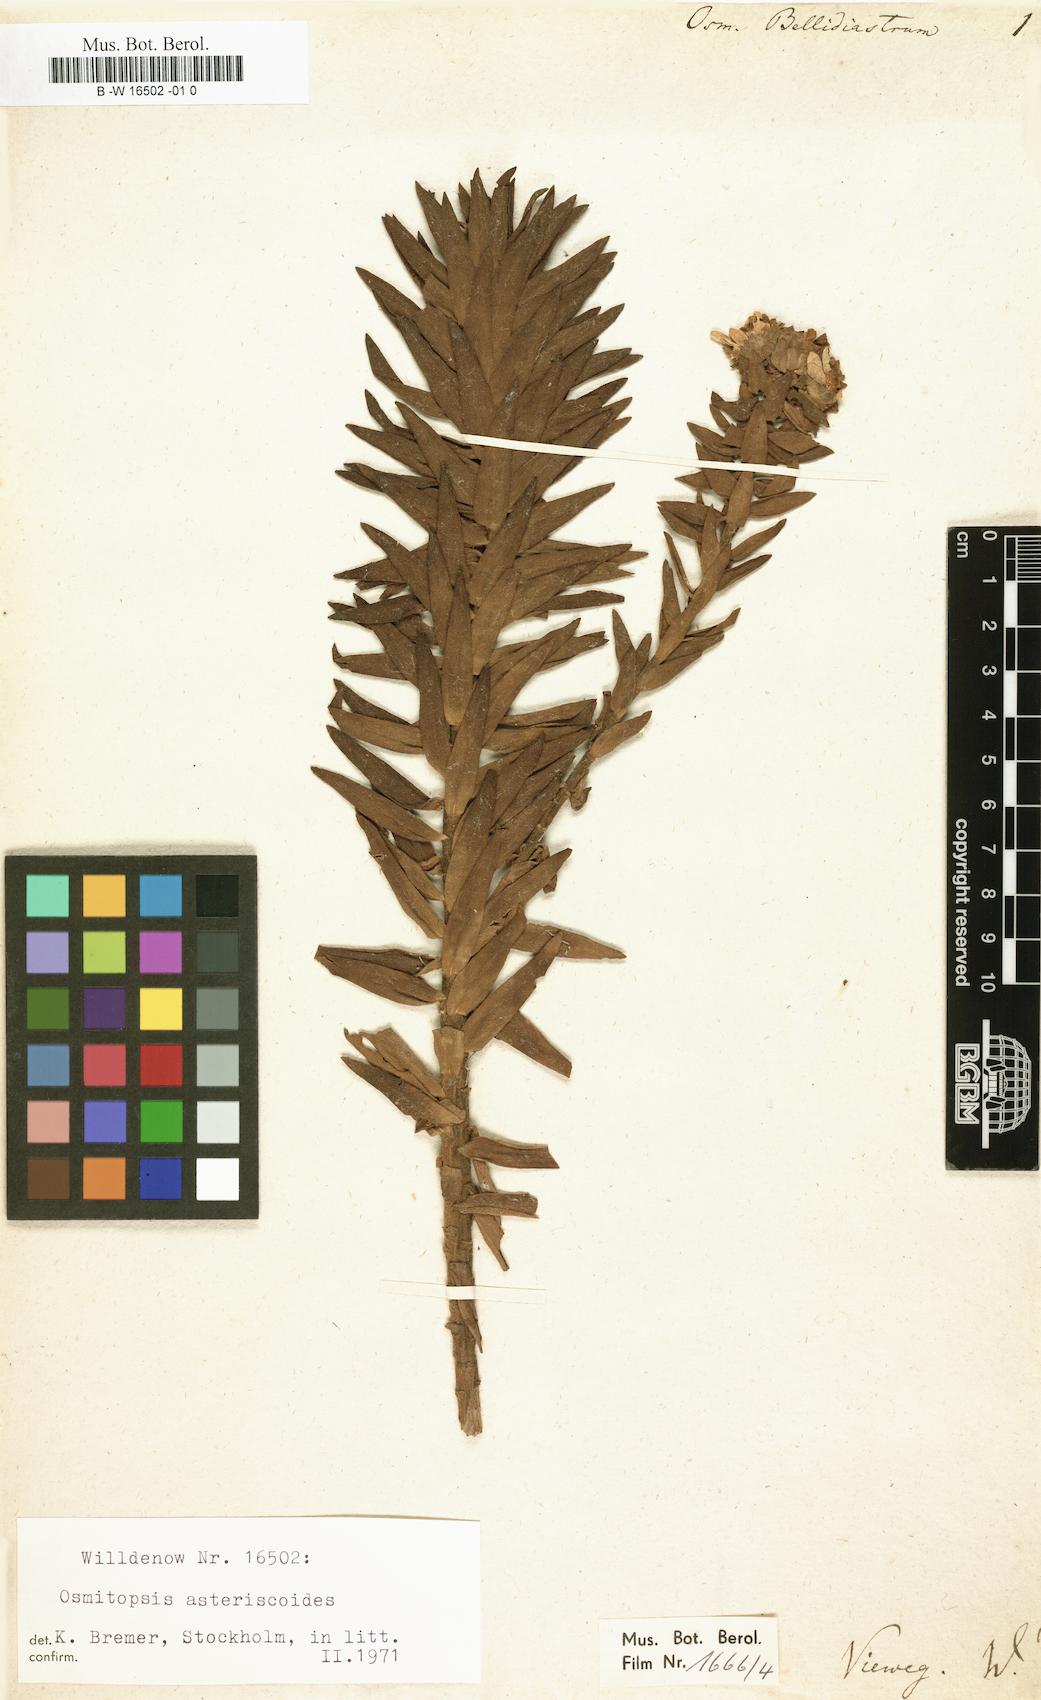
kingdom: Plantae
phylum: Tracheophyta
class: Magnoliopsida
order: Asterales
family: Asteraceae
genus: Osmitopsis
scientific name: Osmitopsis osmitoides
